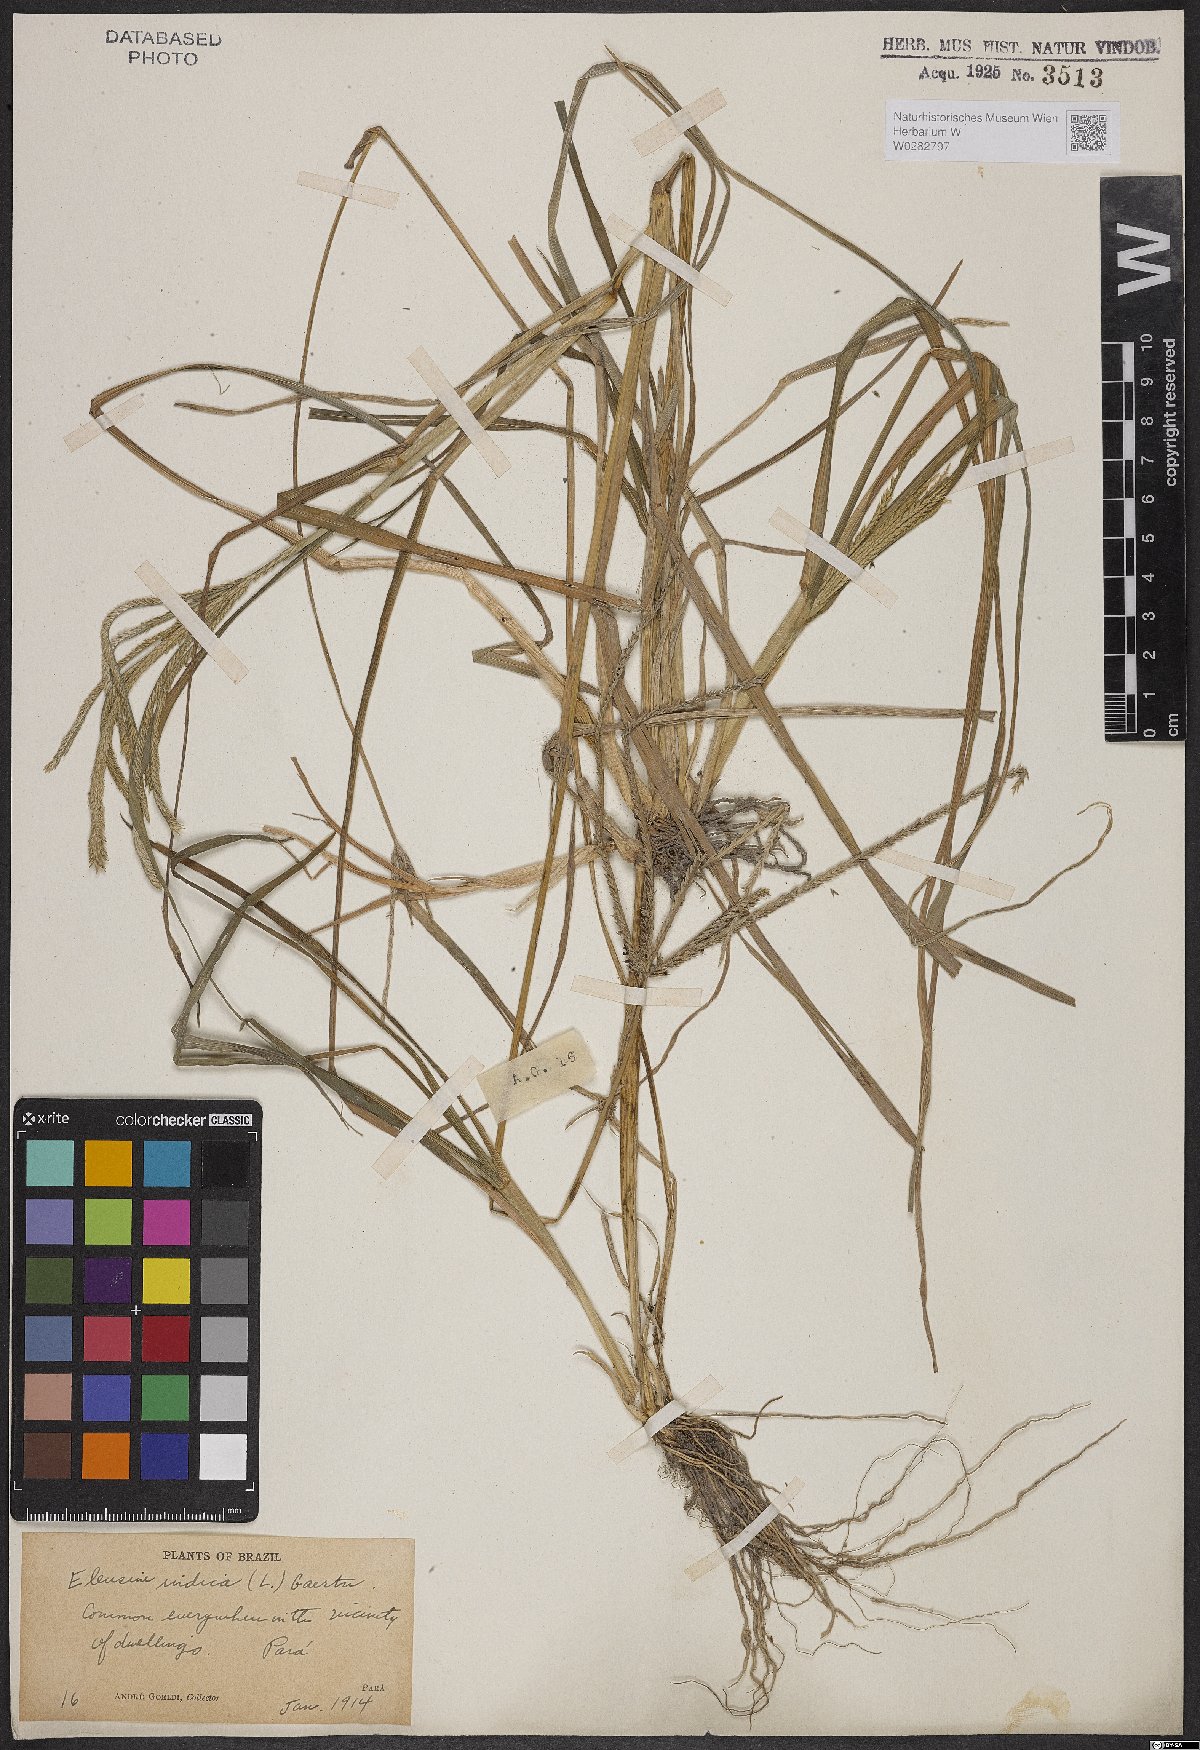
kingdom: Plantae
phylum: Tracheophyta
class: Liliopsida
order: Poales
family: Poaceae
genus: Eleusine
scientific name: Eleusine indica
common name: Yard-grass
